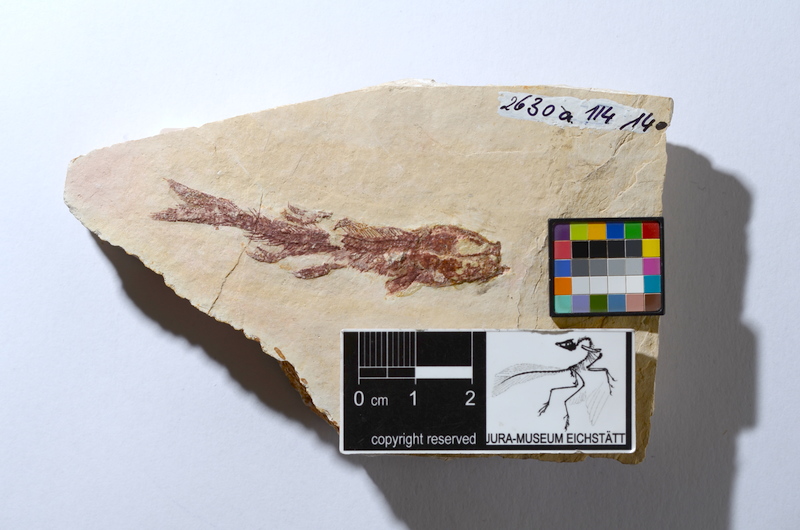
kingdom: Animalia
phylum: Chordata
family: Ascalaboidae
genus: Tharsis
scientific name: Tharsis dubius
